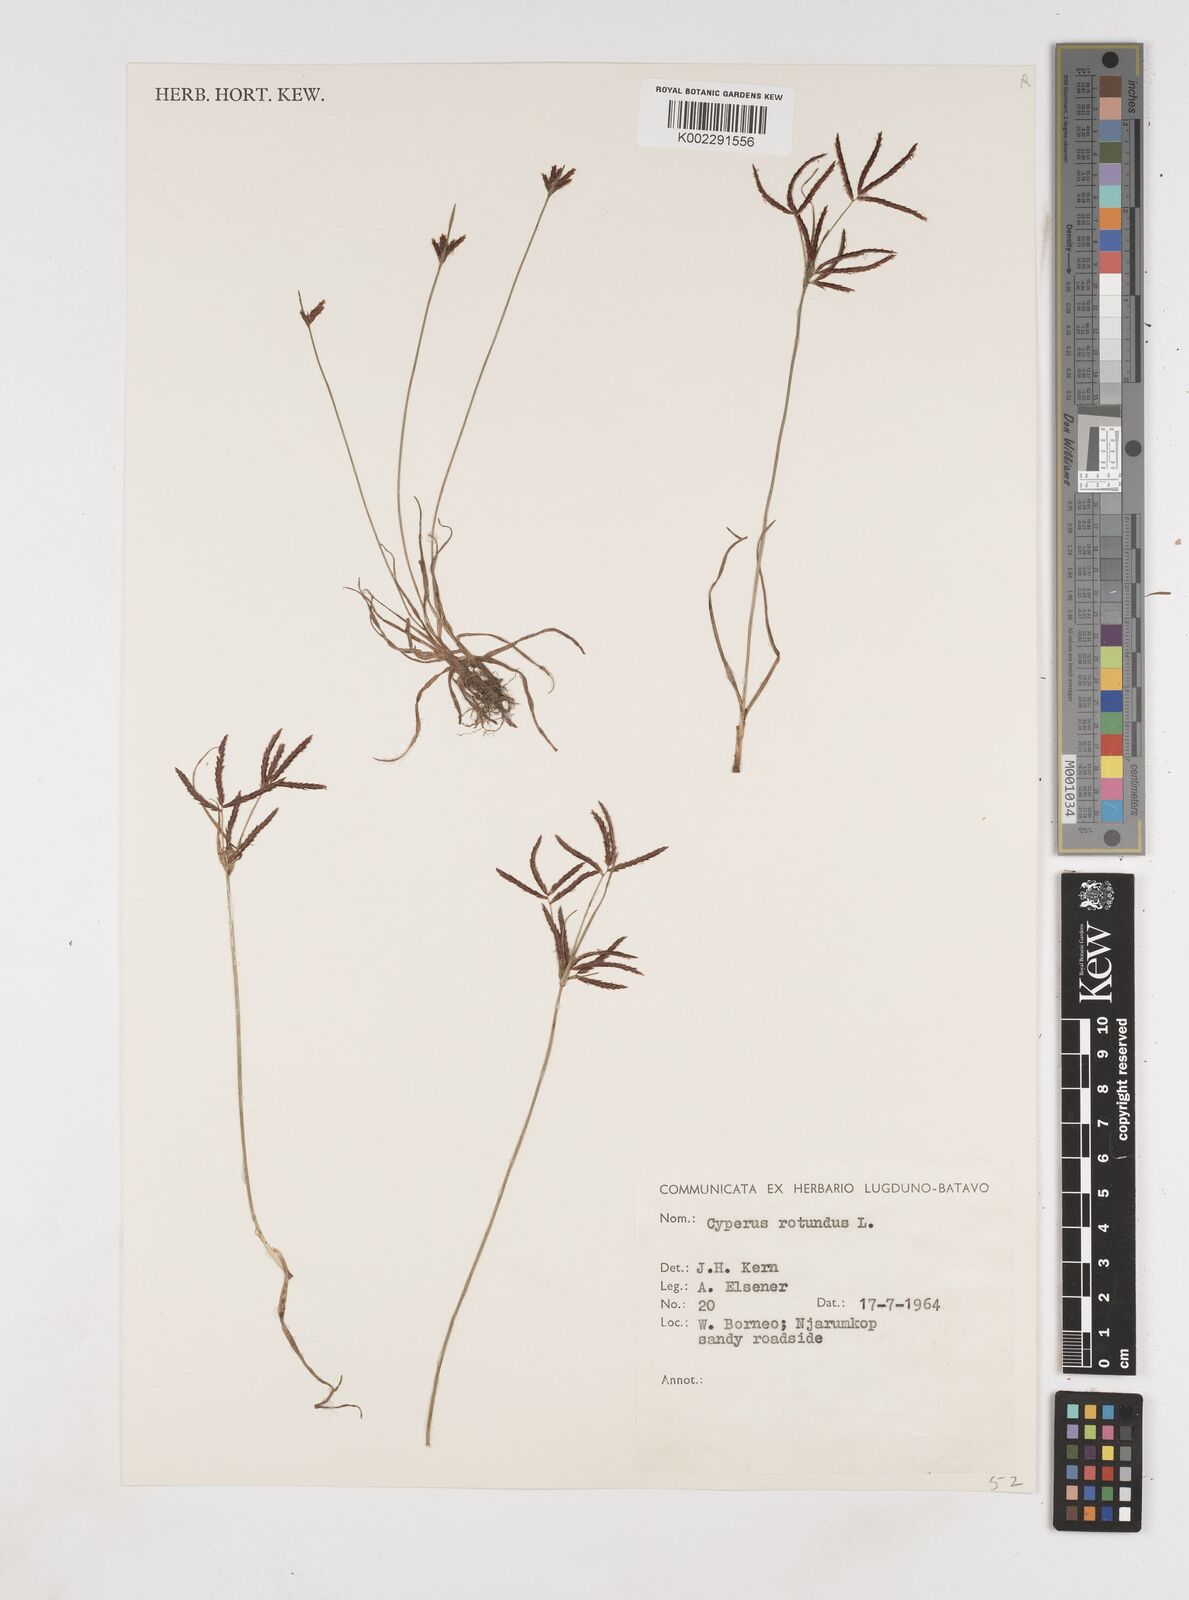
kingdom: Plantae
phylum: Tracheophyta
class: Liliopsida
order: Poales
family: Cyperaceae
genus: Cyperus
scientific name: Cyperus rotundus
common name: Nutgrass
